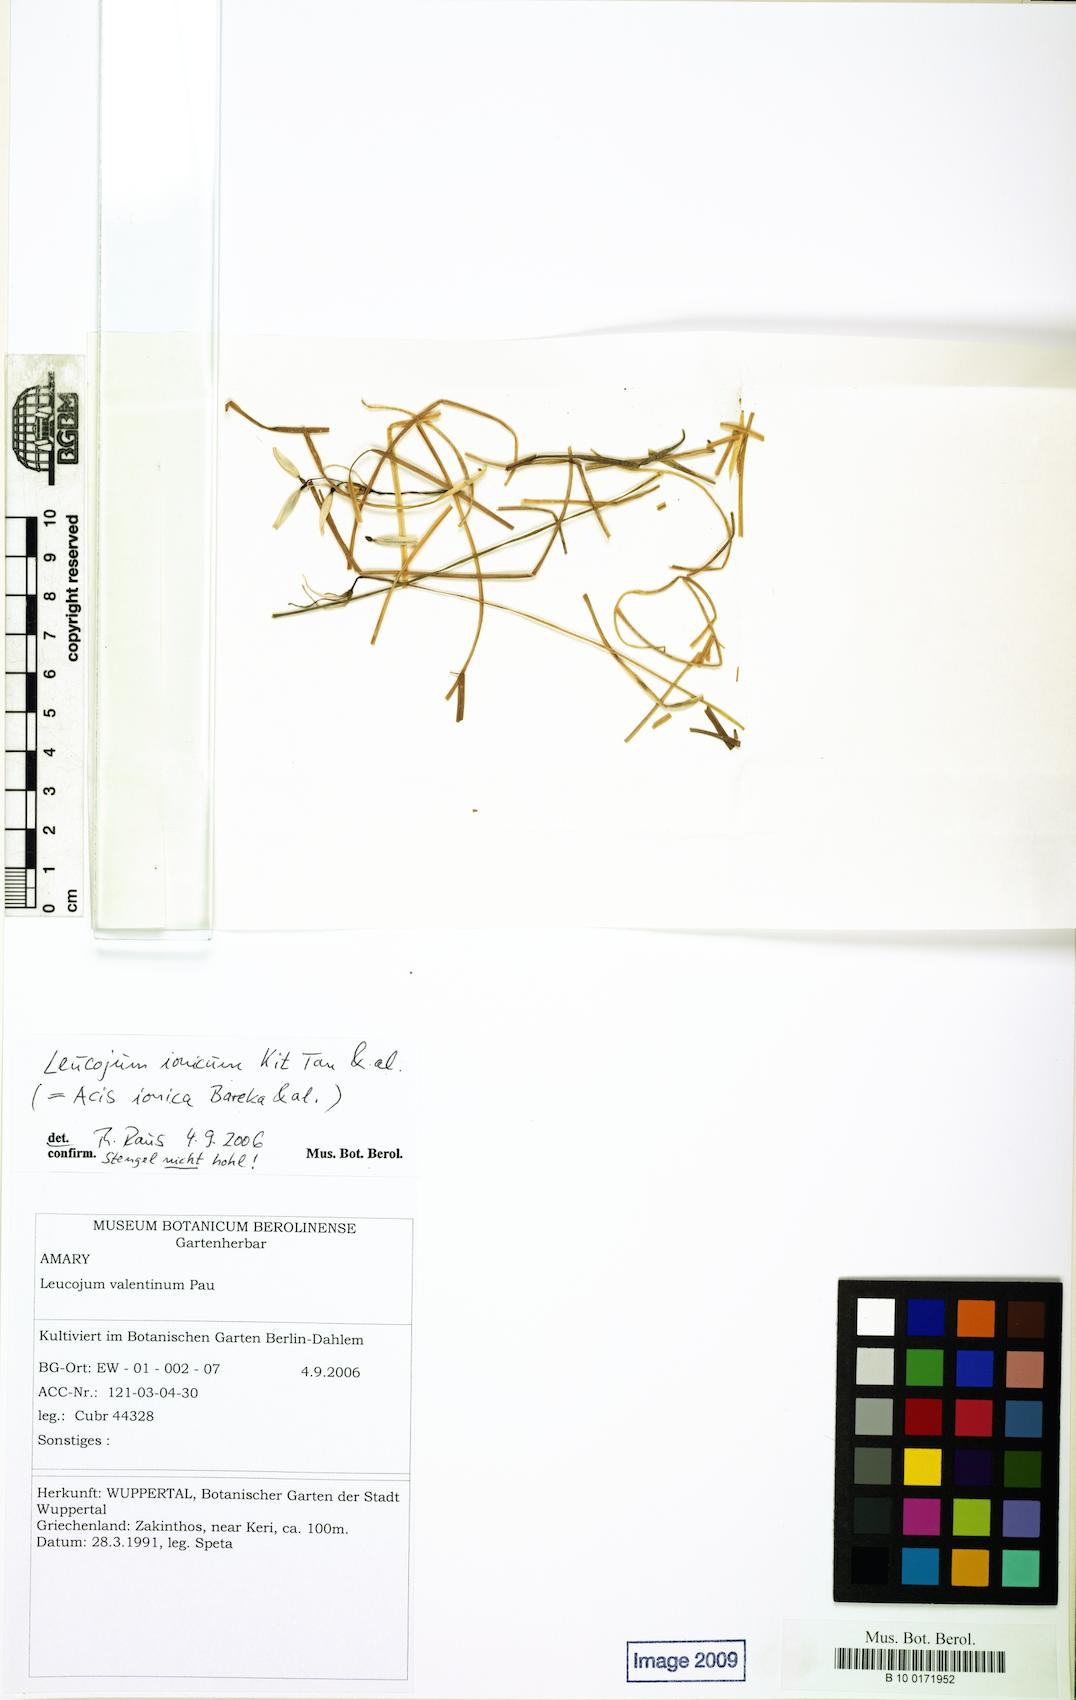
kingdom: Plantae
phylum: Tracheophyta
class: Liliopsida
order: Asparagales
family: Amaryllidaceae
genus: Acis
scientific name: Acis ionica
